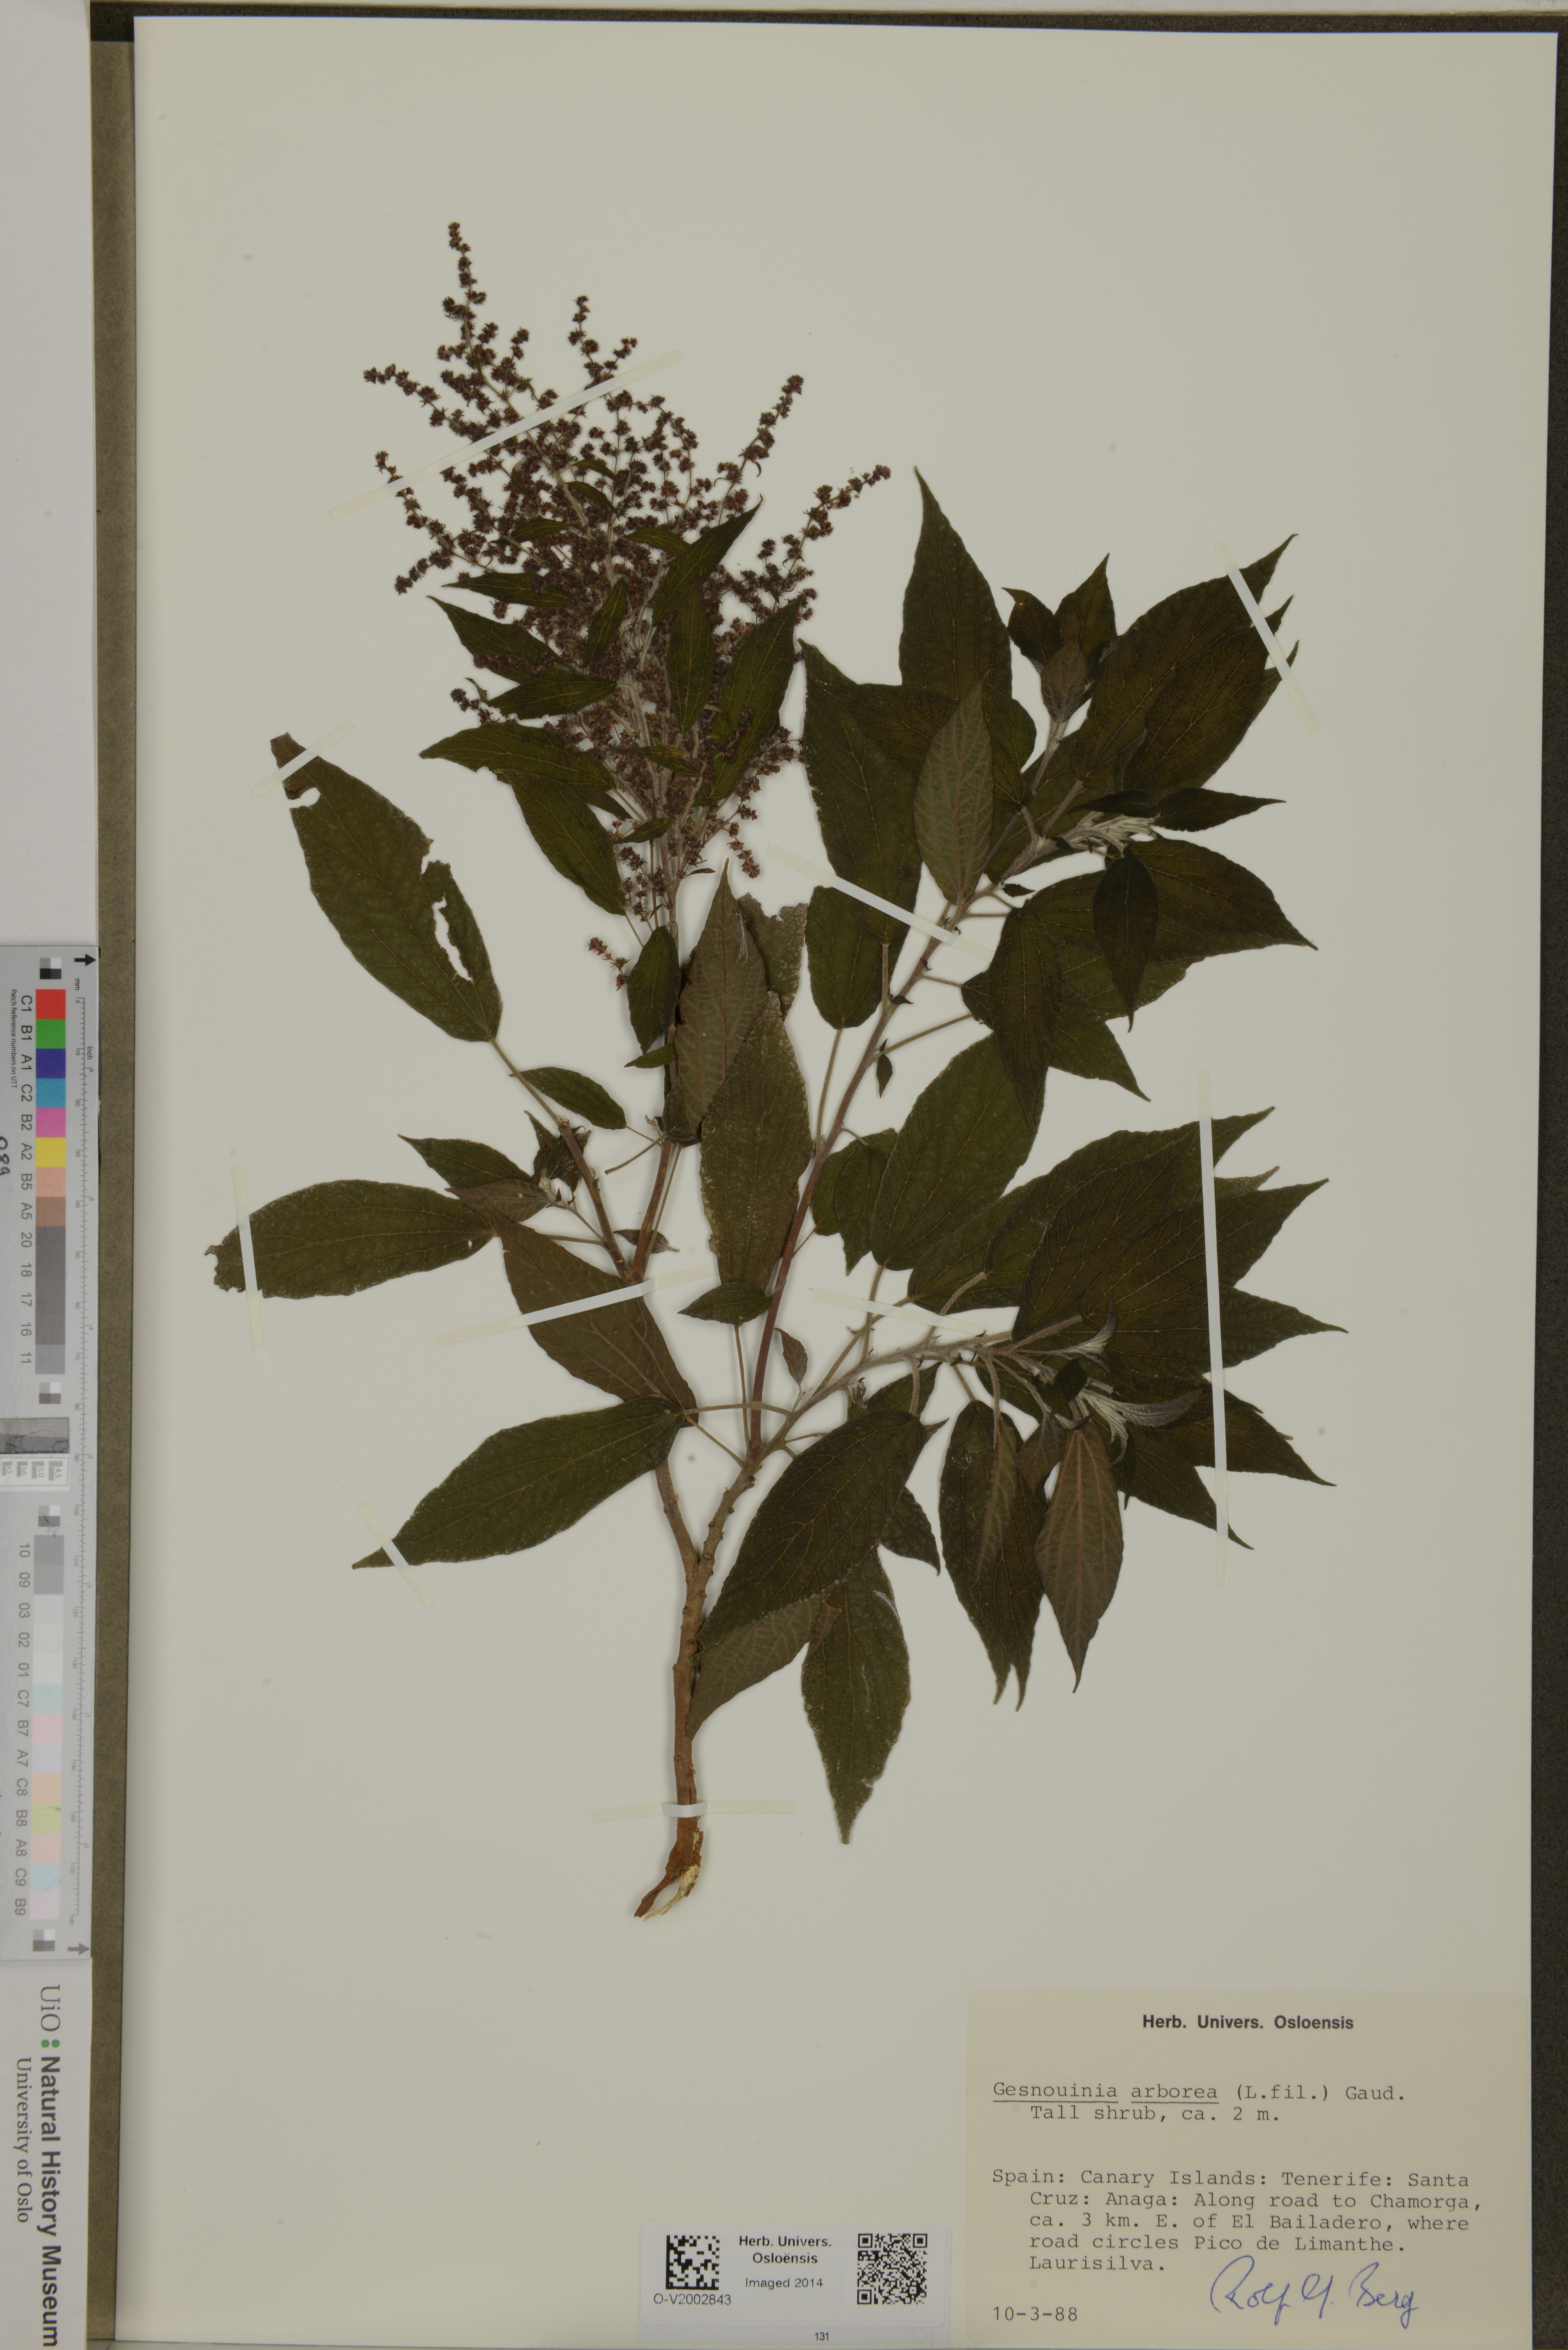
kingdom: Plantae
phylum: Tracheophyta
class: Magnoliopsida
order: Rosales
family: Urticaceae
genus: Gesnouinia
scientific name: Gesnouinia arborea
